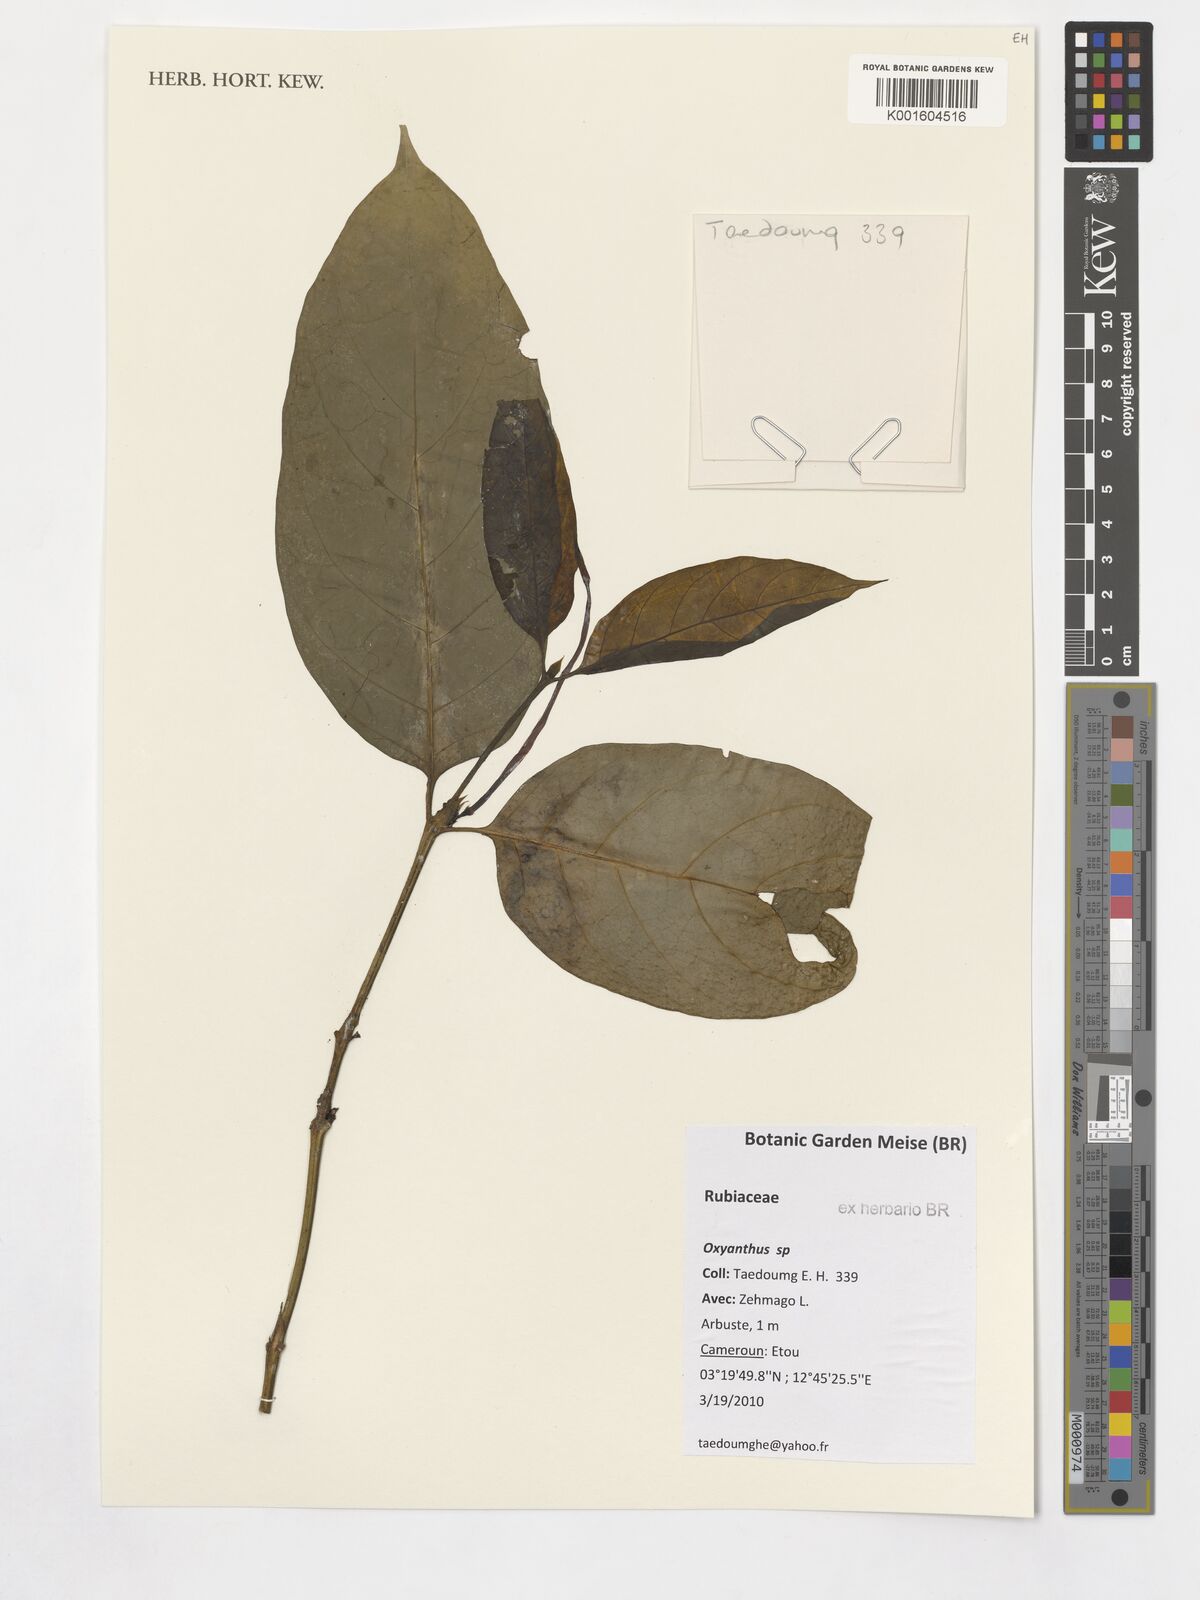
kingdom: Plantae
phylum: Tracheophyta
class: Magnoliopsida
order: Gentianales
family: Rubiaceae
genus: Oxyanthus
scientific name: Oxyanthus
